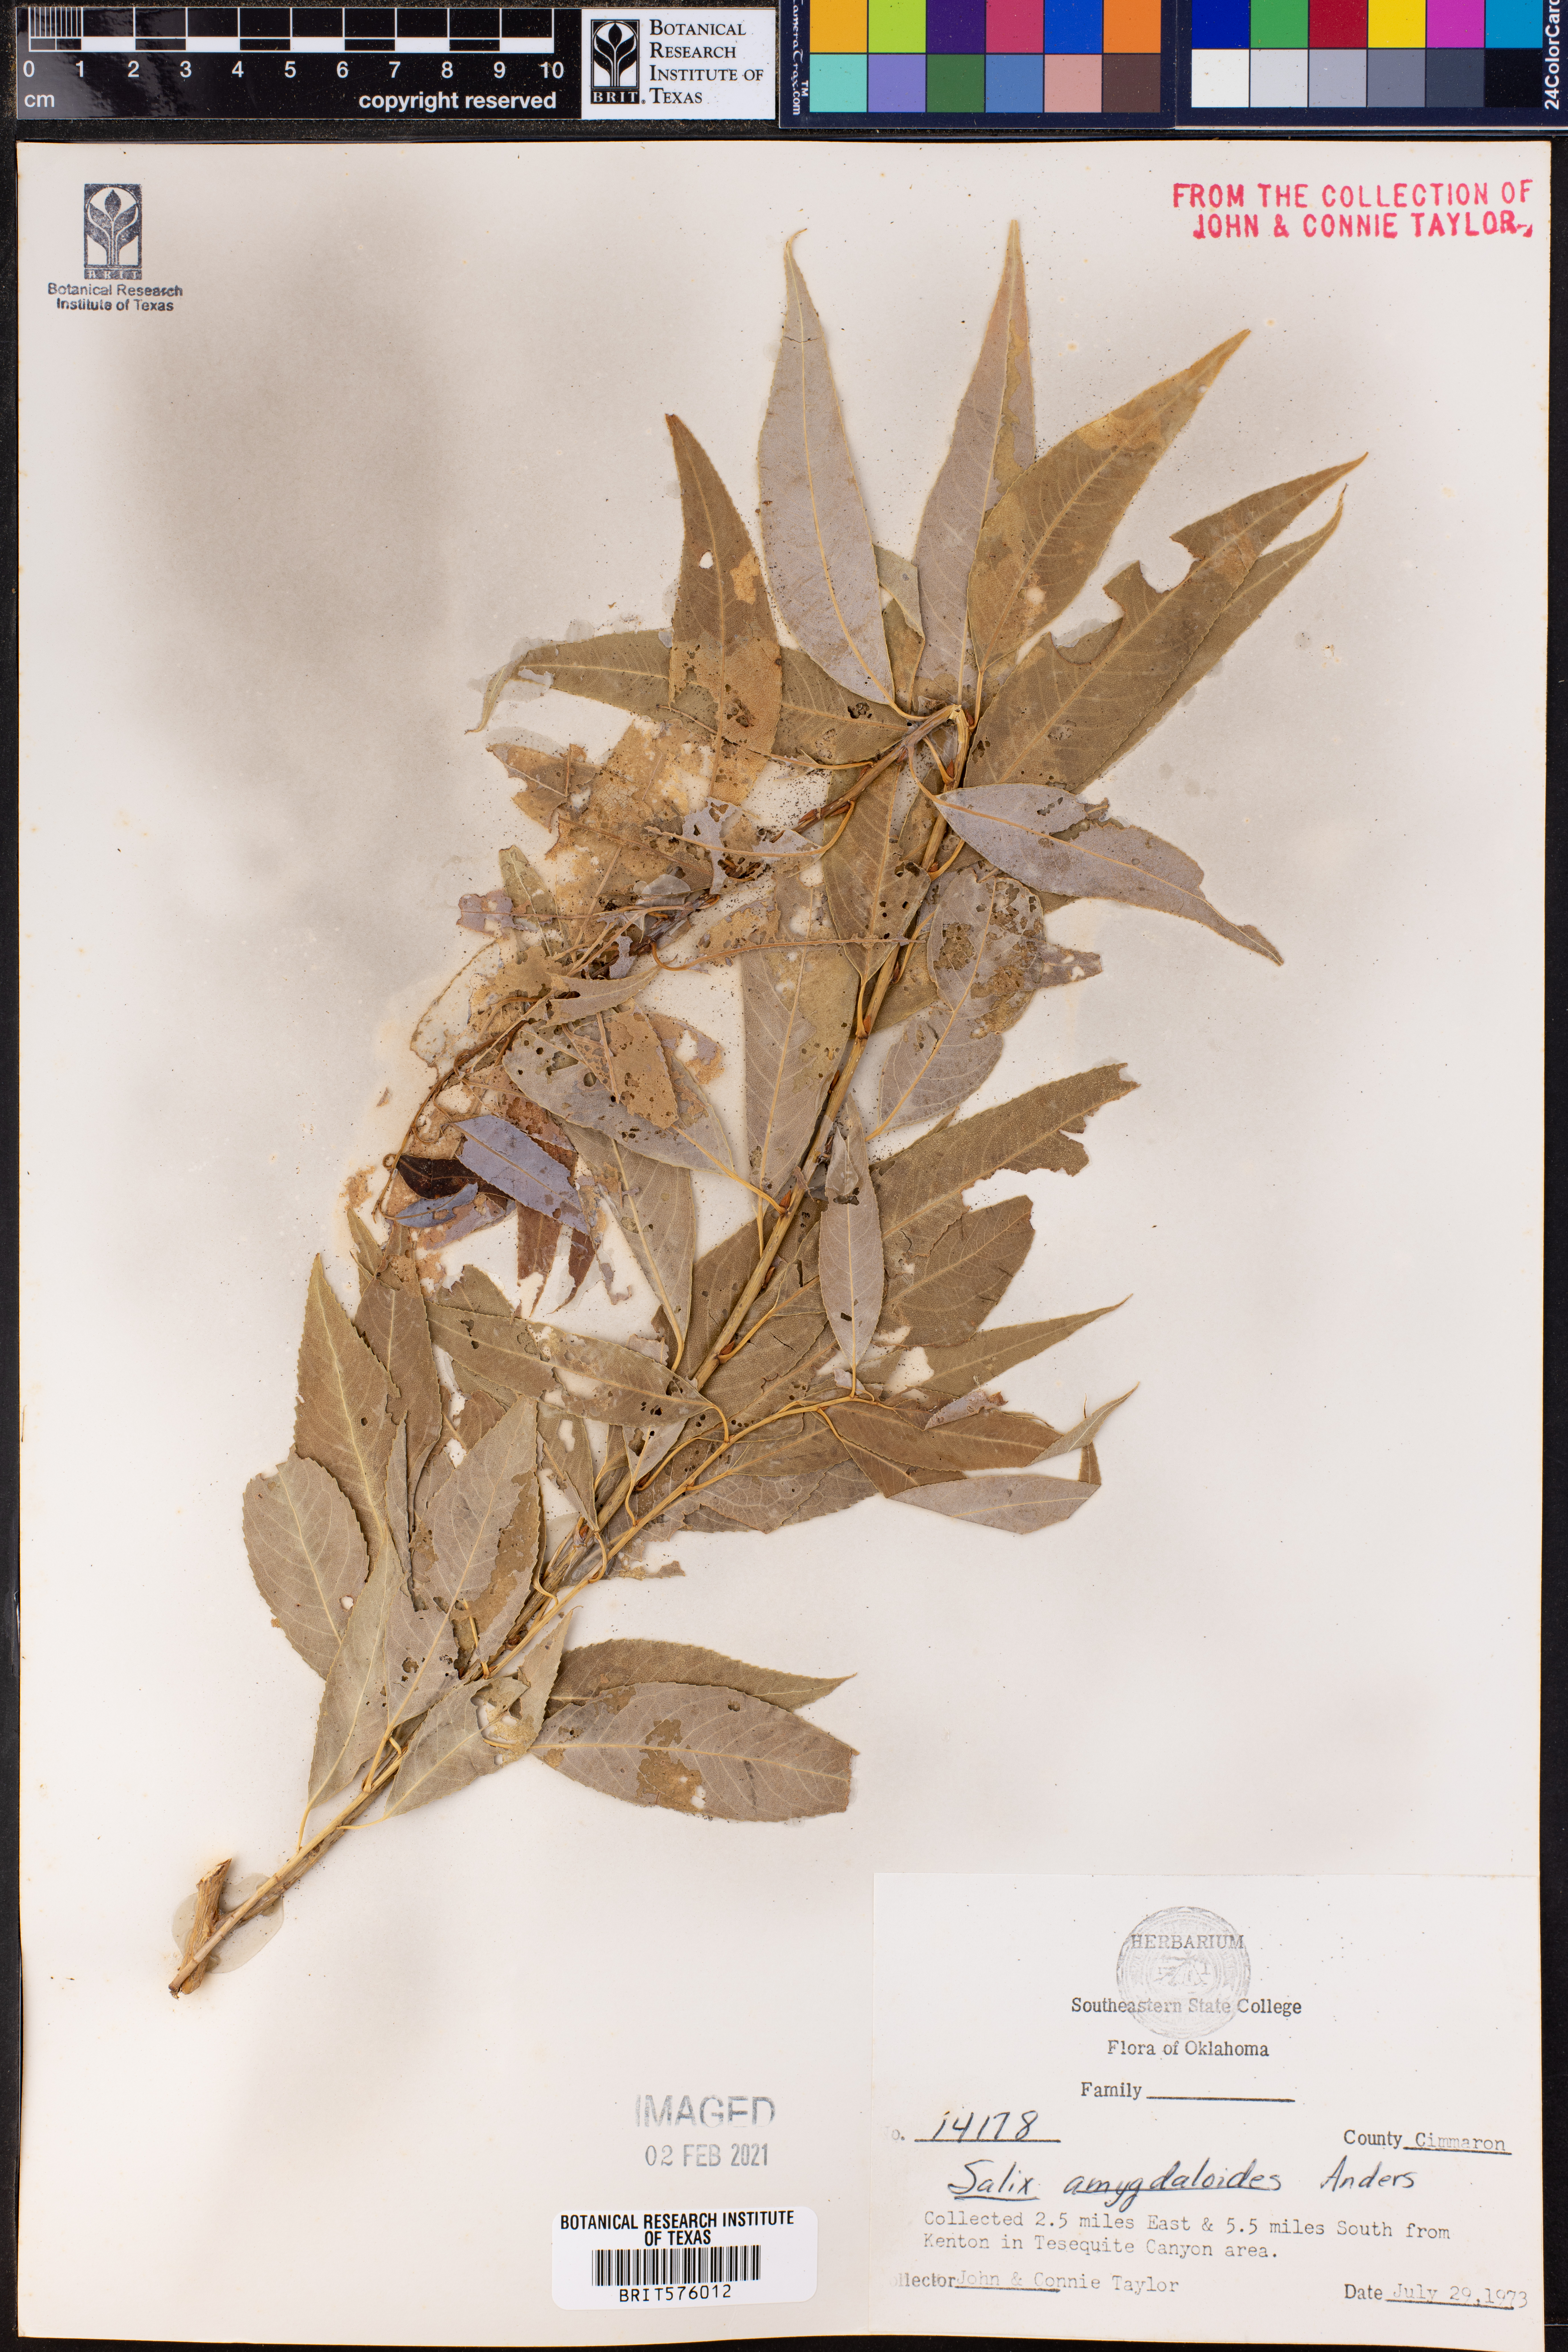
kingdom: Plantae
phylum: Tracheophyta
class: Magnoliopsida
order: Malpighiales
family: Salicaceae
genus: Salix
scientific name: Salix amygdaloides
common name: Peach leaf willow
